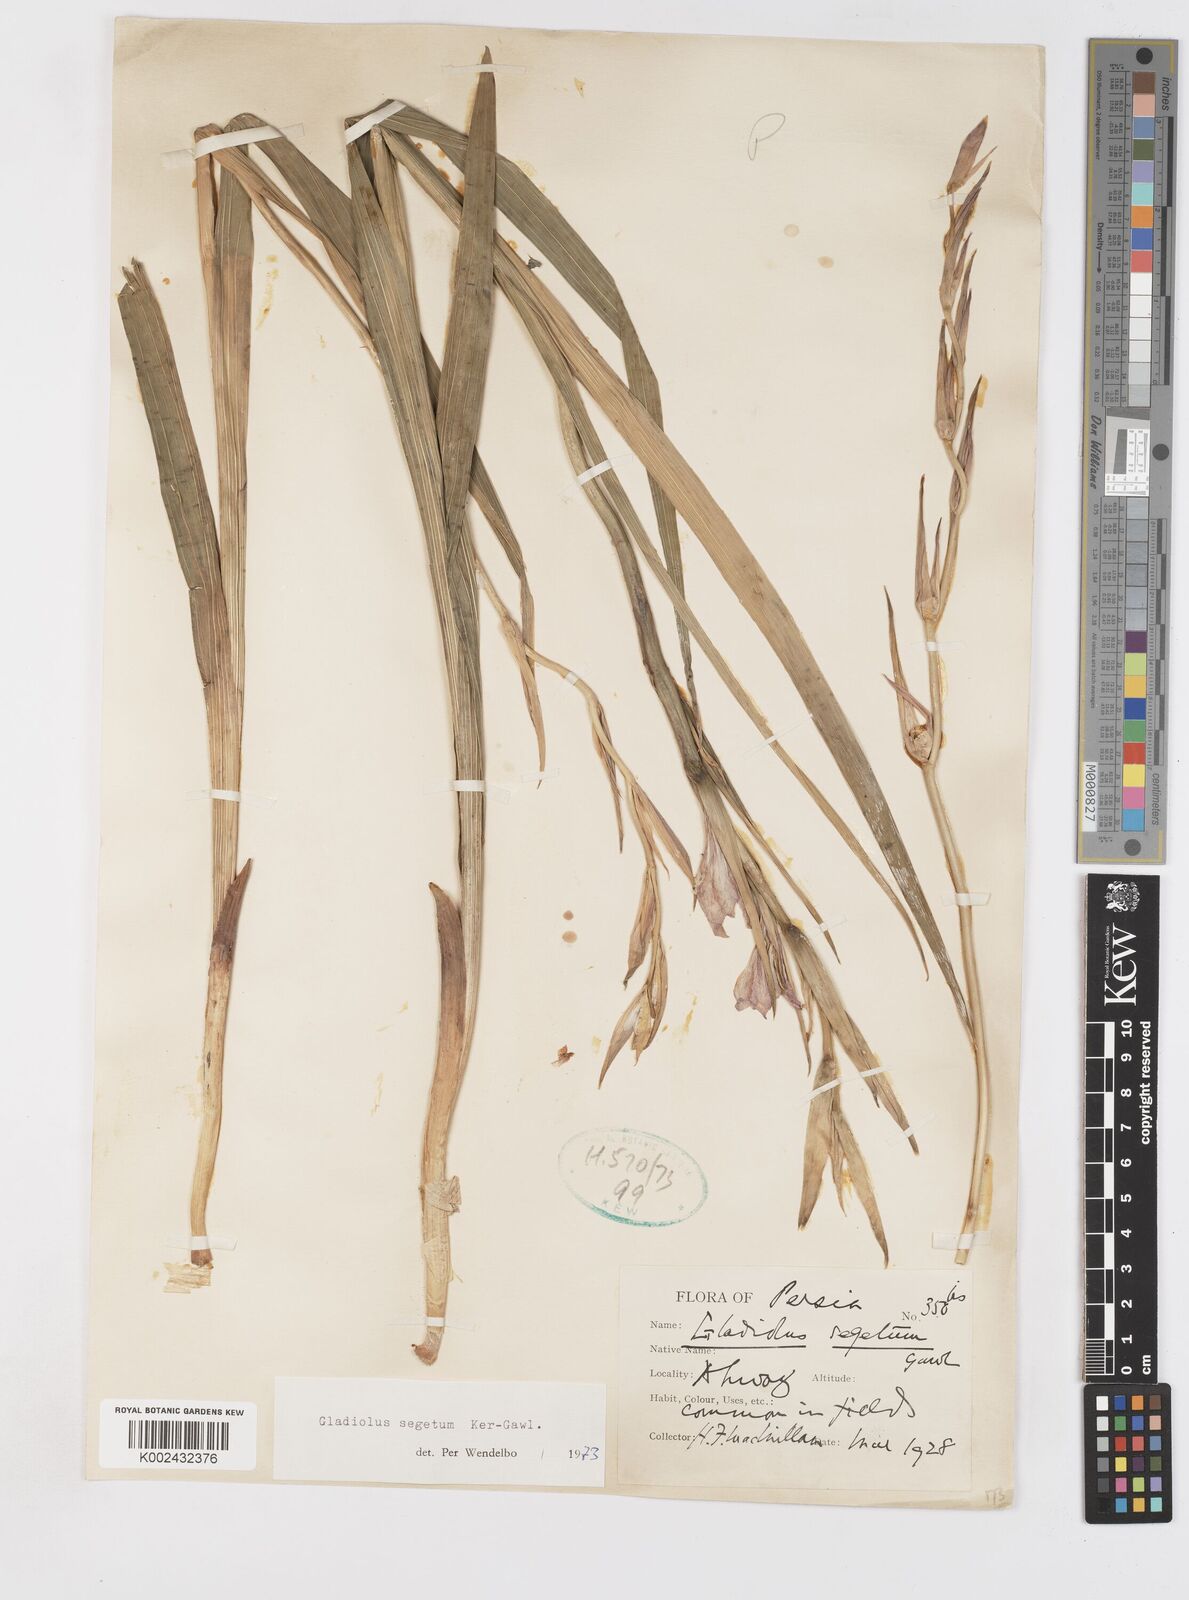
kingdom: Plantae
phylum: Tracheophyta
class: Liliopsida
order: Asparagales
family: Iridaceae
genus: Gladiolus
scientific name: Gladiolus italicus
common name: Field gladiolus
